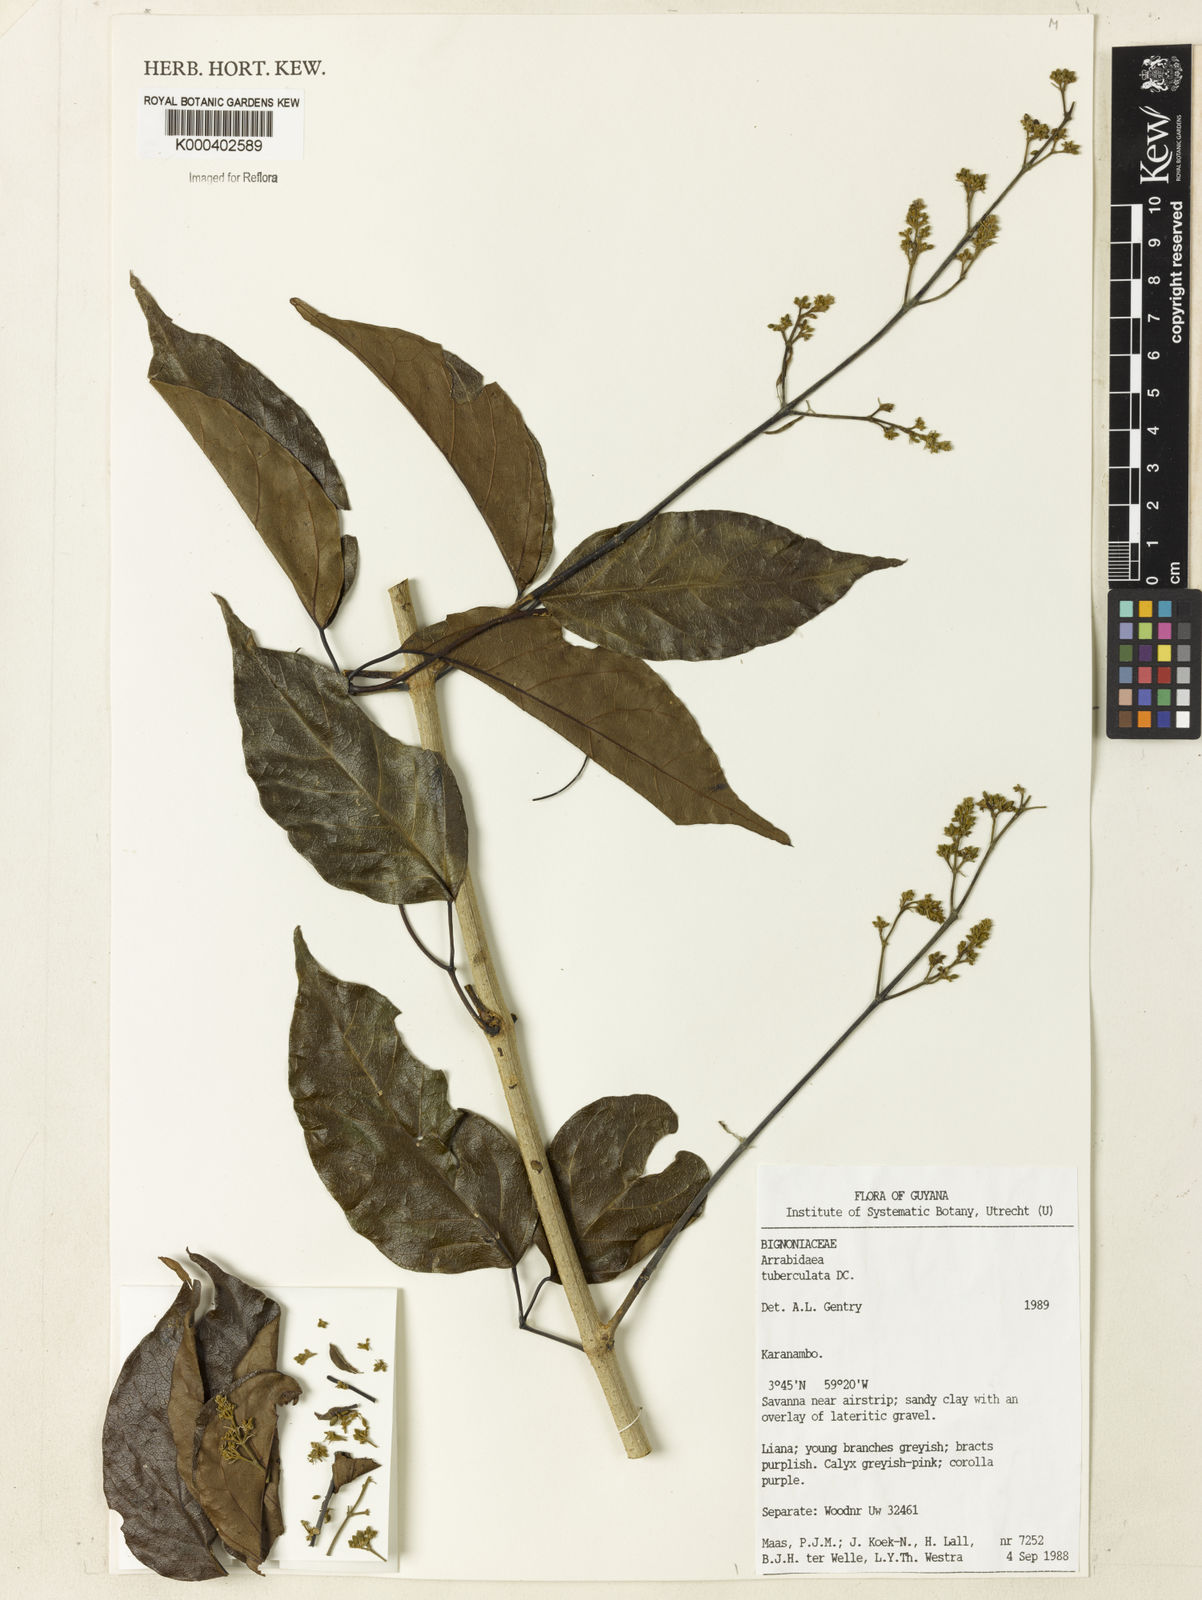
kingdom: Plantae
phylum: Tracheophyta
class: Magnoliopsida
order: Lamiales
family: Bignoniaceae
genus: Fridericia
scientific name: Fridericia tuberculata
